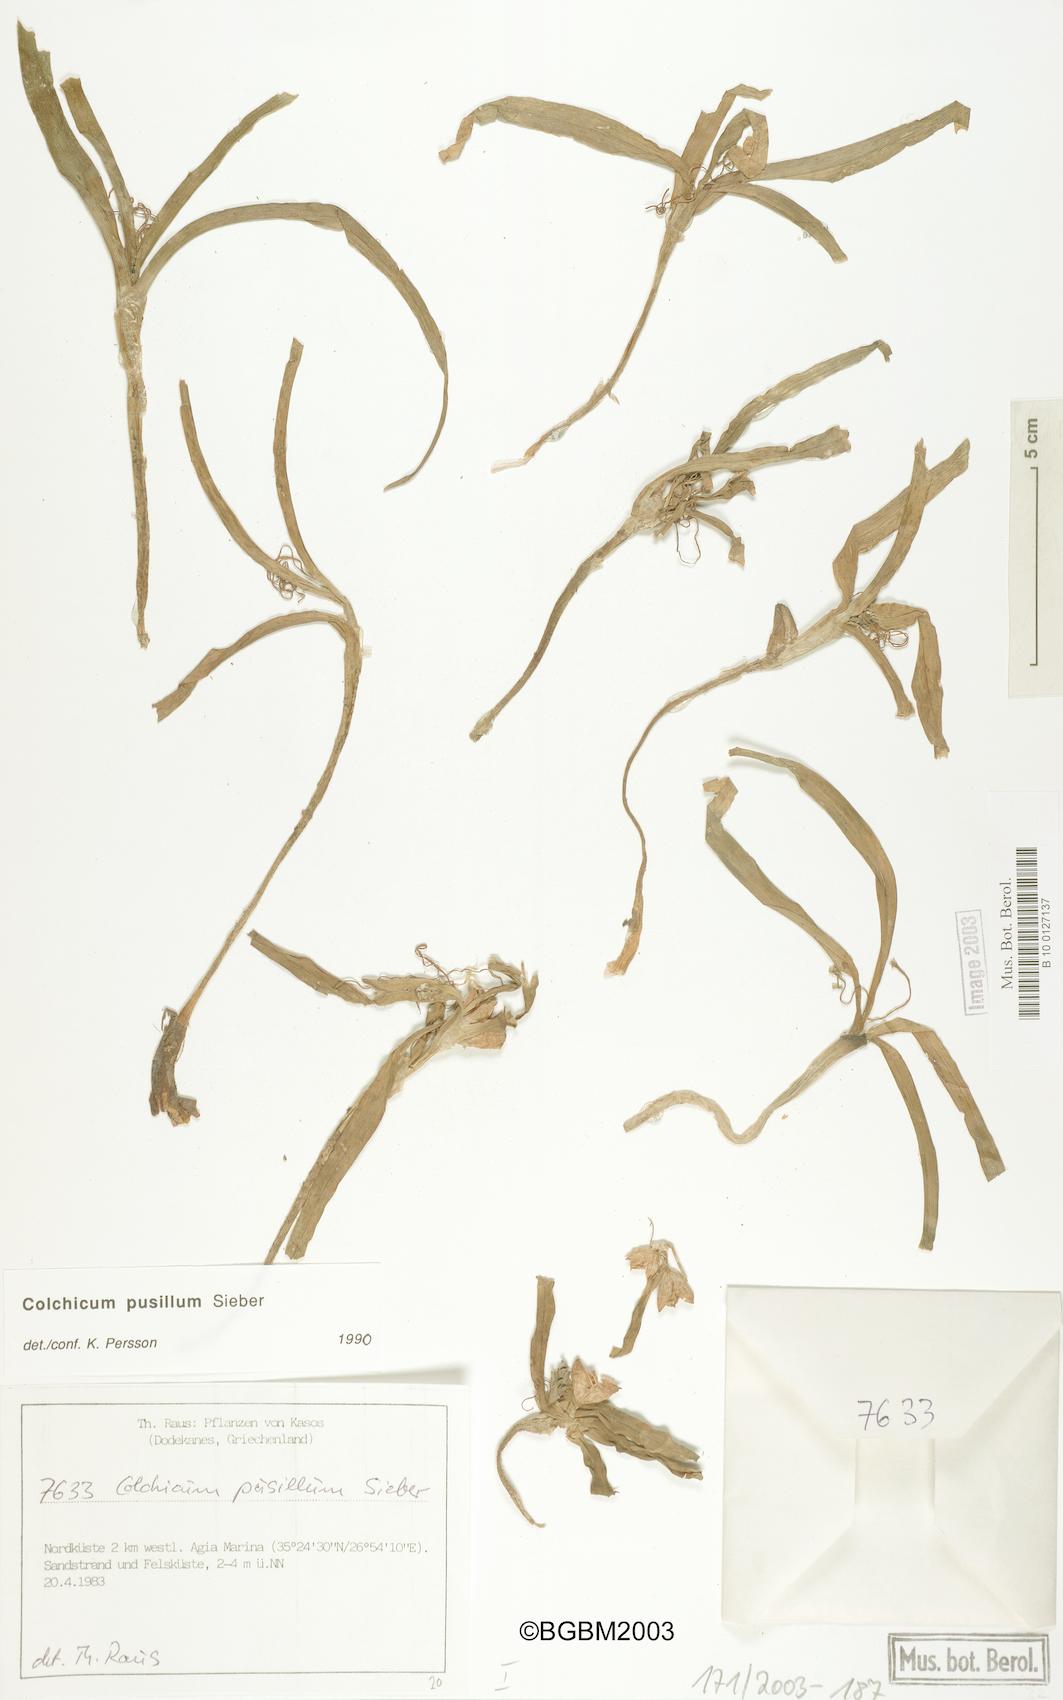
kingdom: Plantae
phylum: Tracheophyta
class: Liliopsida
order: Liliales
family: Colchicaceae
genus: Colchicum
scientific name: Colchicum pusillum
